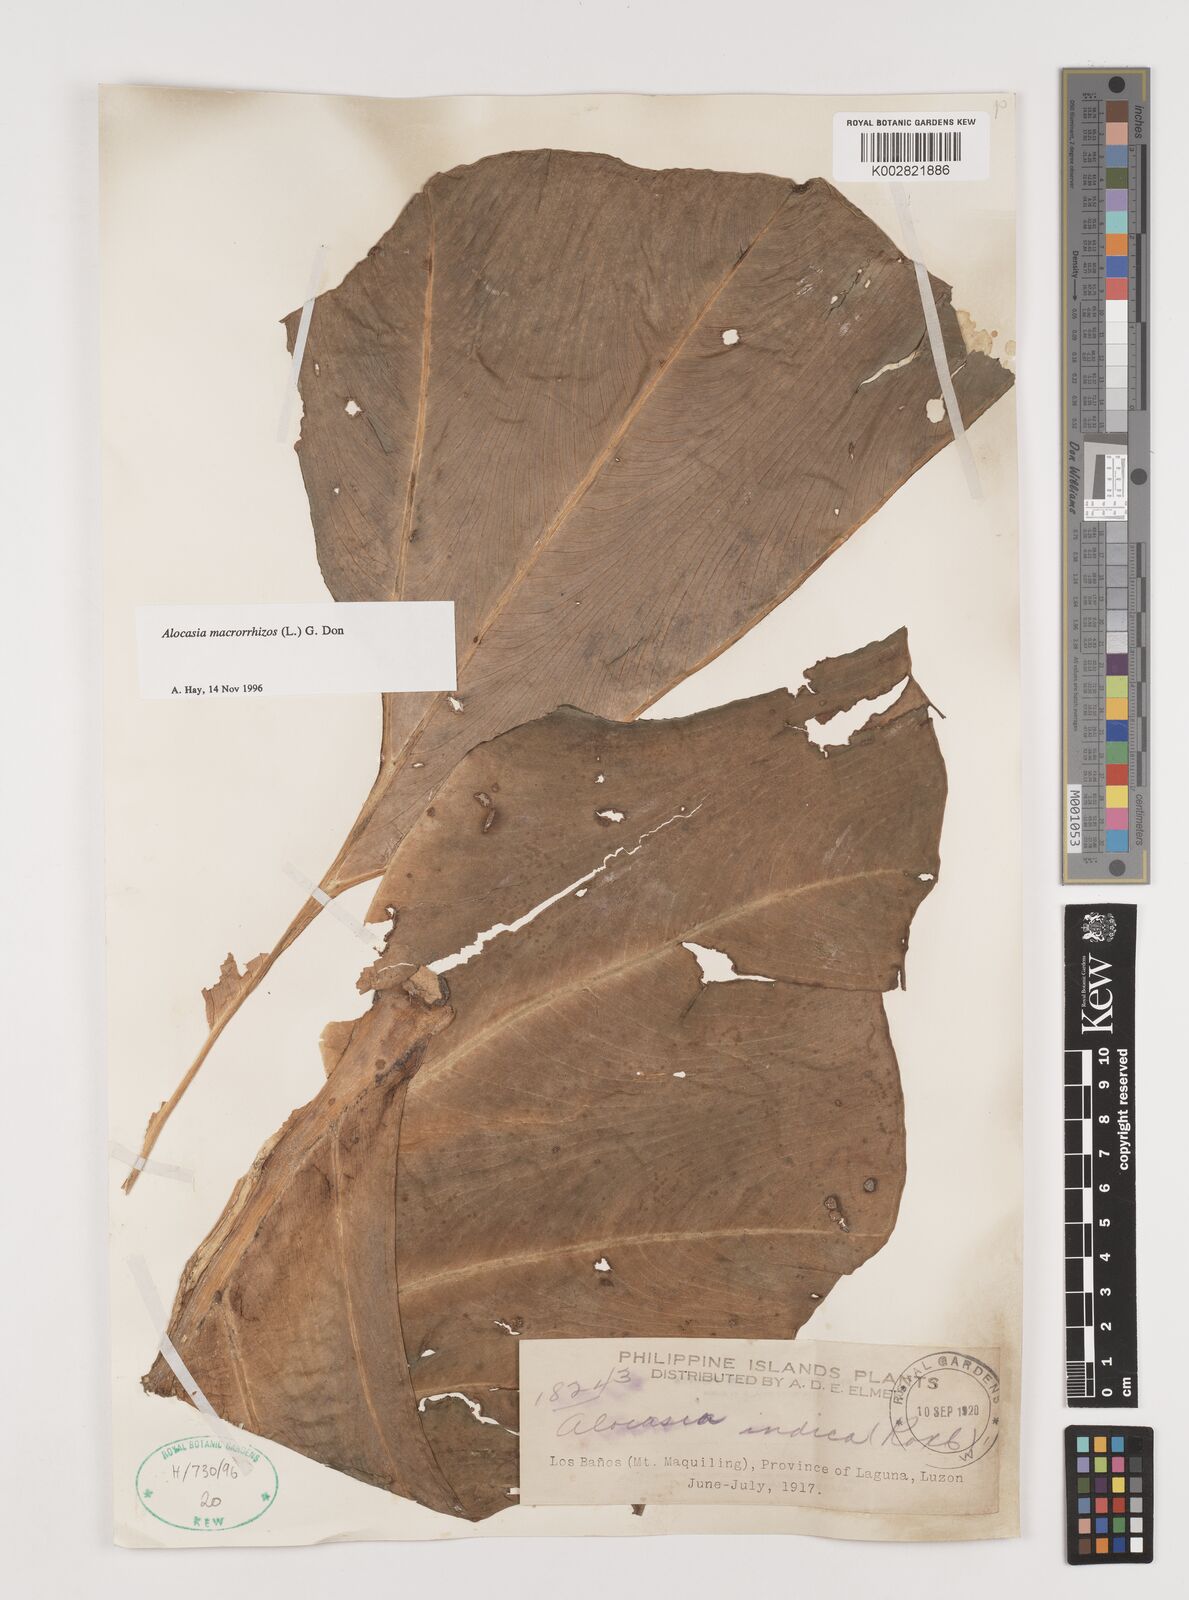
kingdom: Plantae
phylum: Tracheophyta
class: Liliopsida
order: Alismatales
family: Araceae
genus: Alocasia
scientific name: Alocasia macrorrhizos
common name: Giant taro
